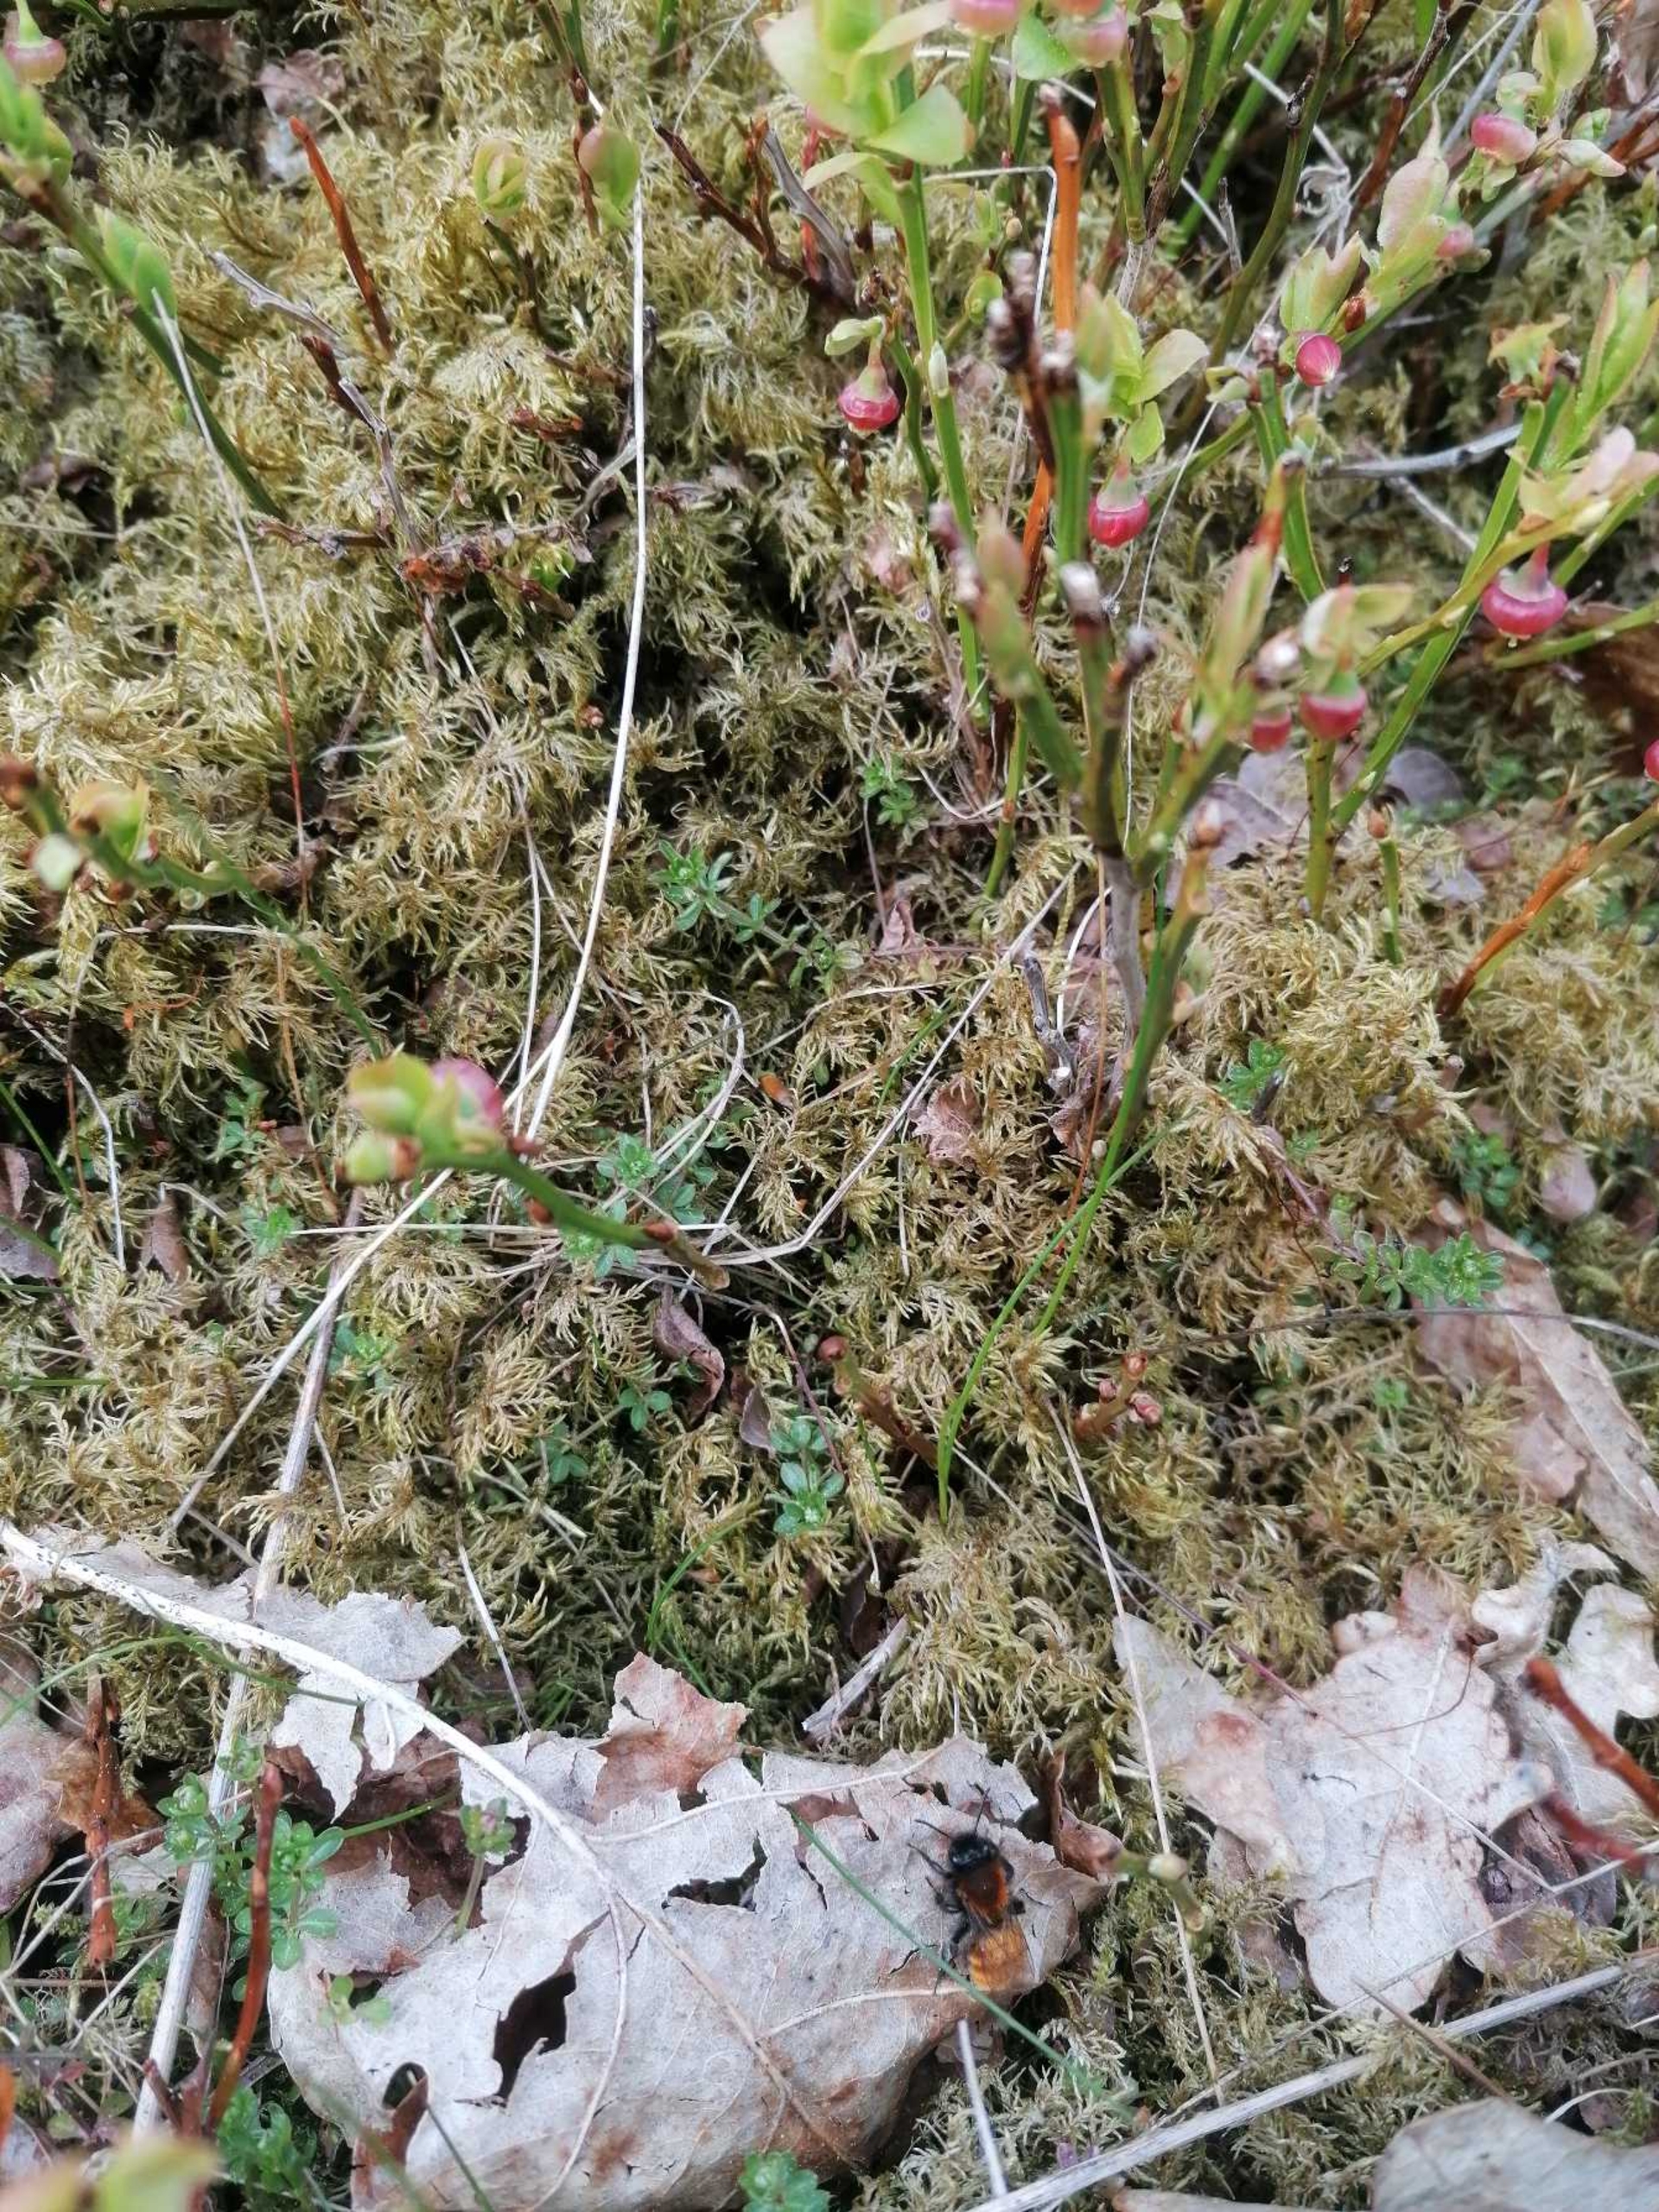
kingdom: Animalia
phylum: Arthropoda
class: Insecta
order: Hymenoptera
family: Andrenidae
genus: Andrena
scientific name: Andrena fulva
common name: Rødpelset jordbi
